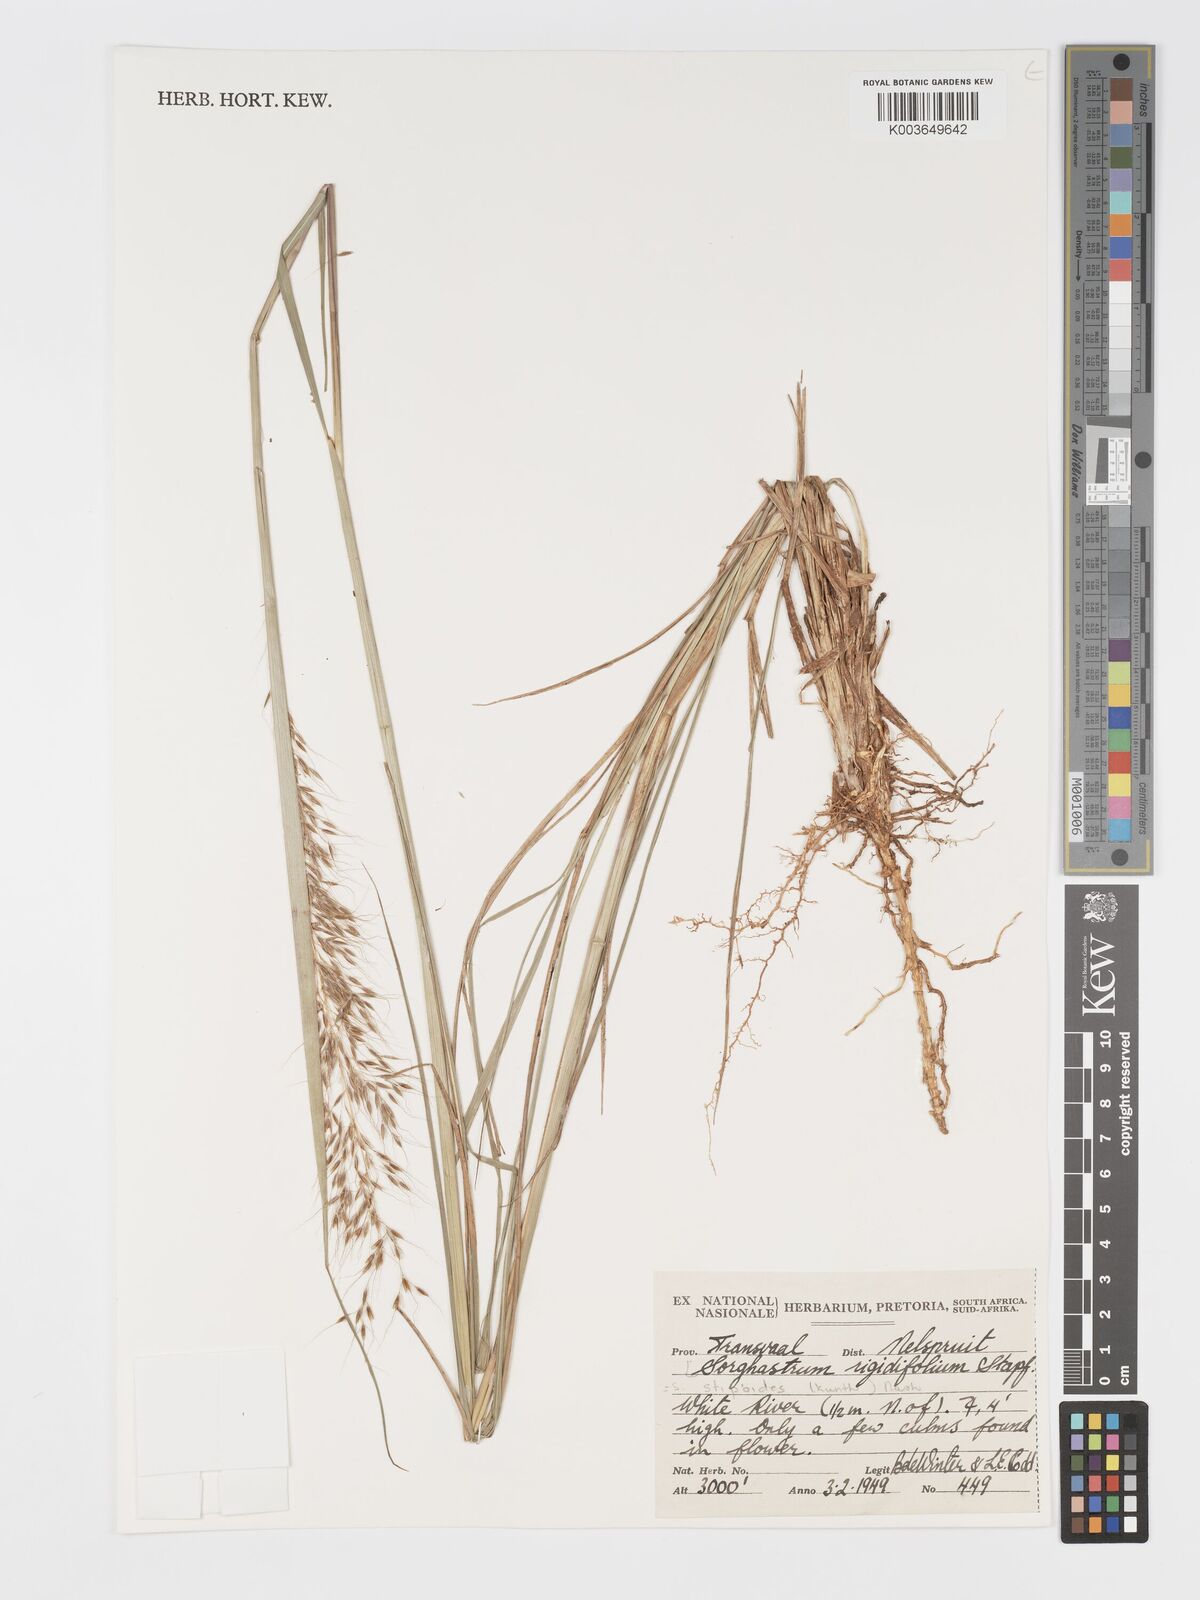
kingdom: Plantae
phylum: Tracheophyta
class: Liliopsida
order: Poales
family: Poaceae
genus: Sorghastrum
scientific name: Sorghastrum stipoides
